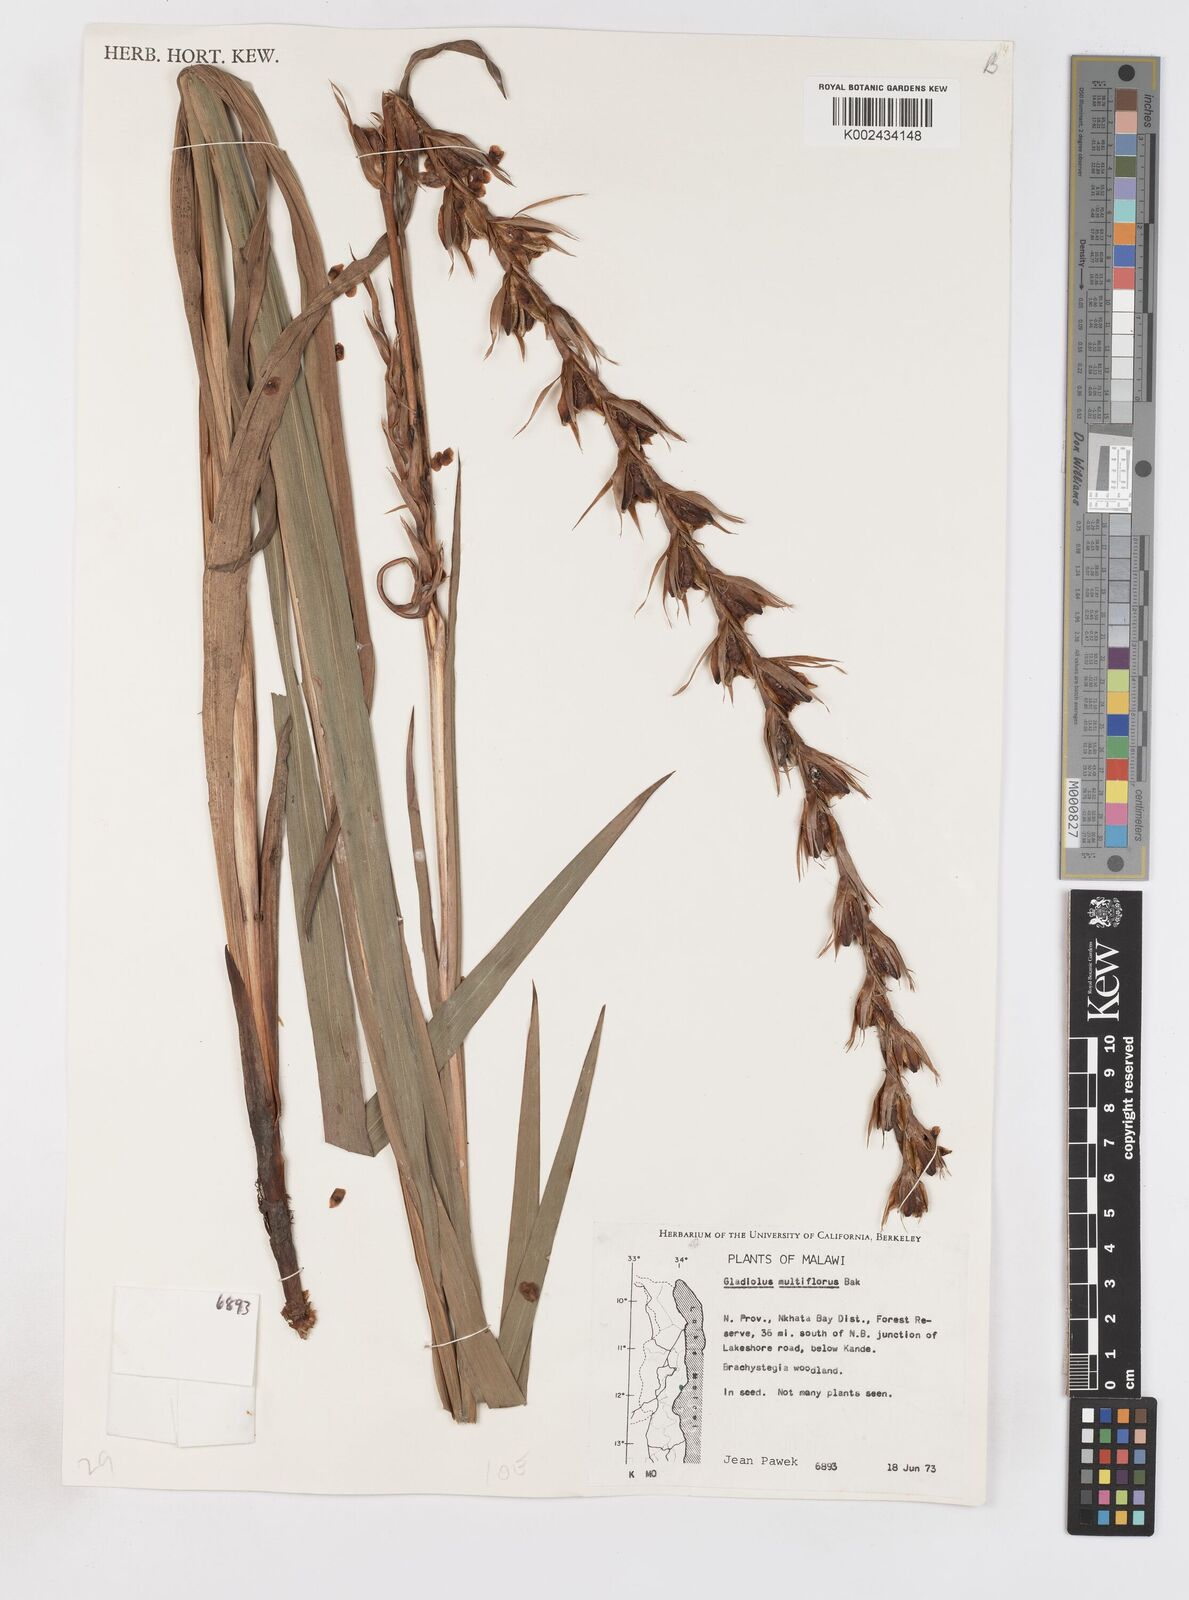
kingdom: Plantae
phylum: Tracheophyta
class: Liliopsida
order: Asparagales
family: Iridaceae
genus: Gladiolus
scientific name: Gladiolus gregarius
